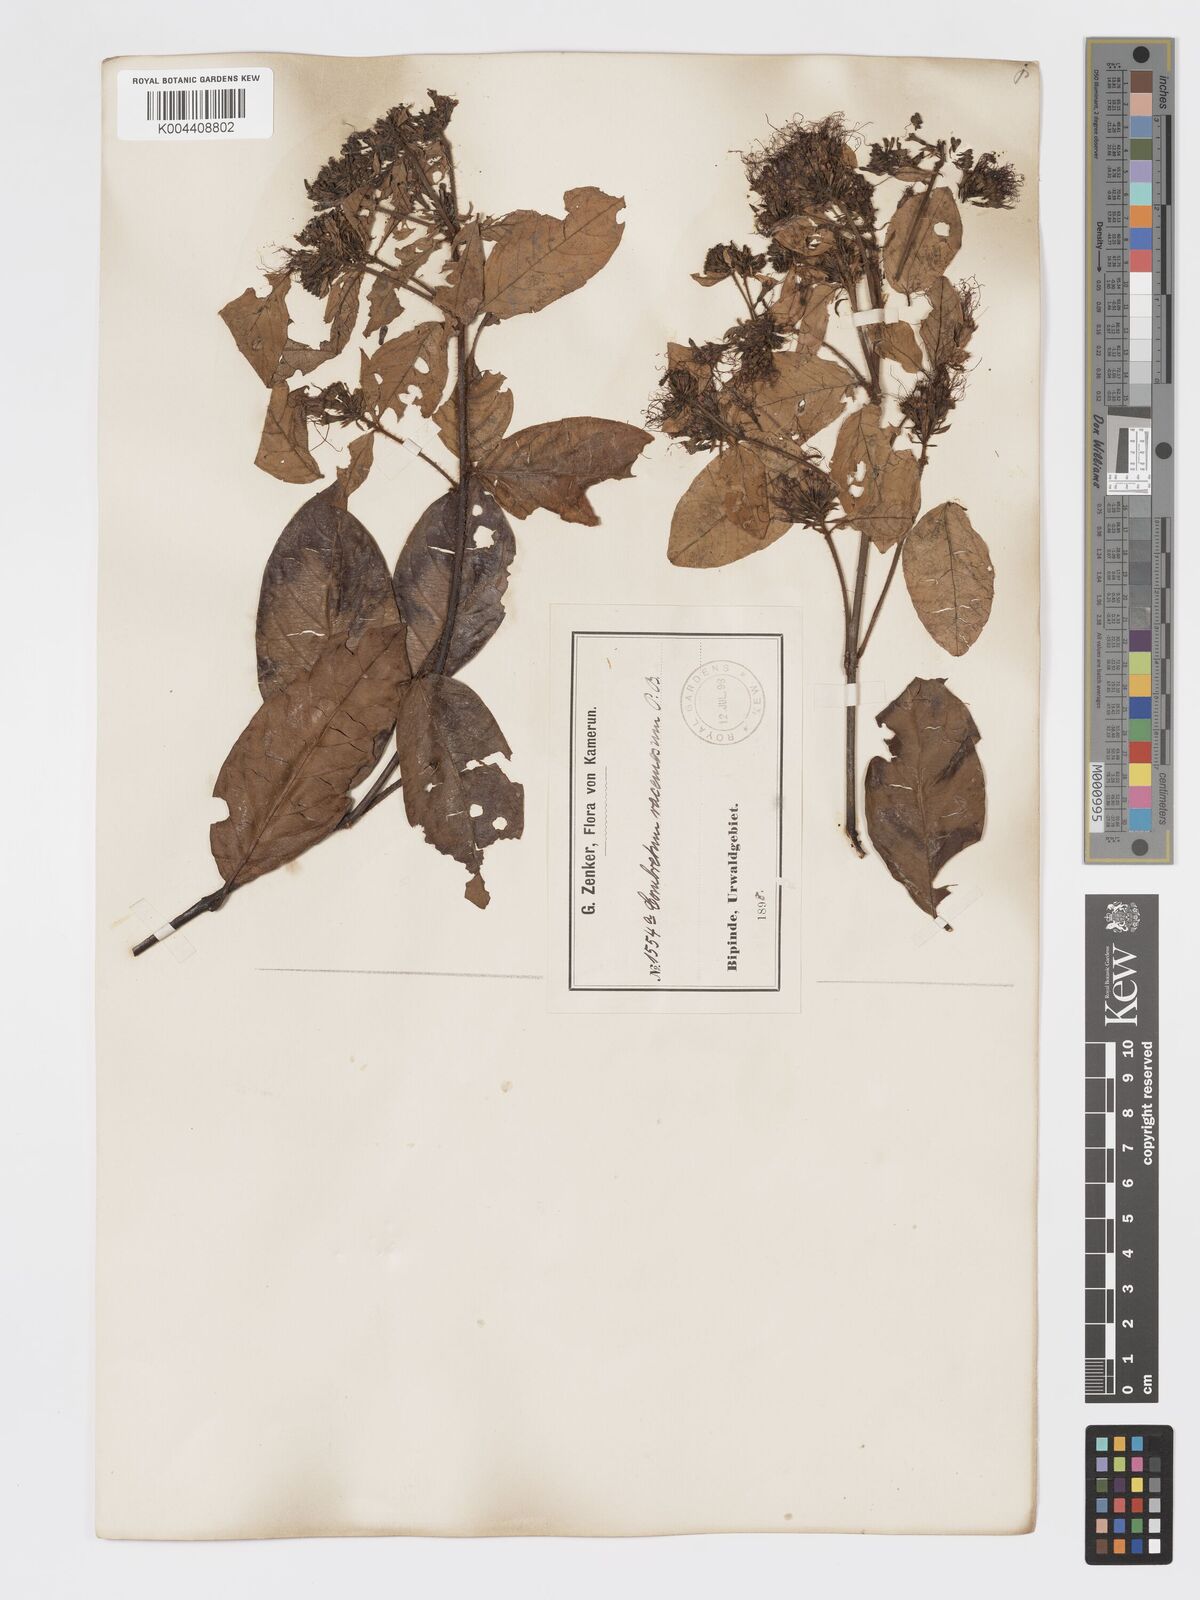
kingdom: Plantae
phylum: Tracheophyta
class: Magnoliopsida
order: Myrtales
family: Combretaceae
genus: Combretum
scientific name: Combretum racemosum
